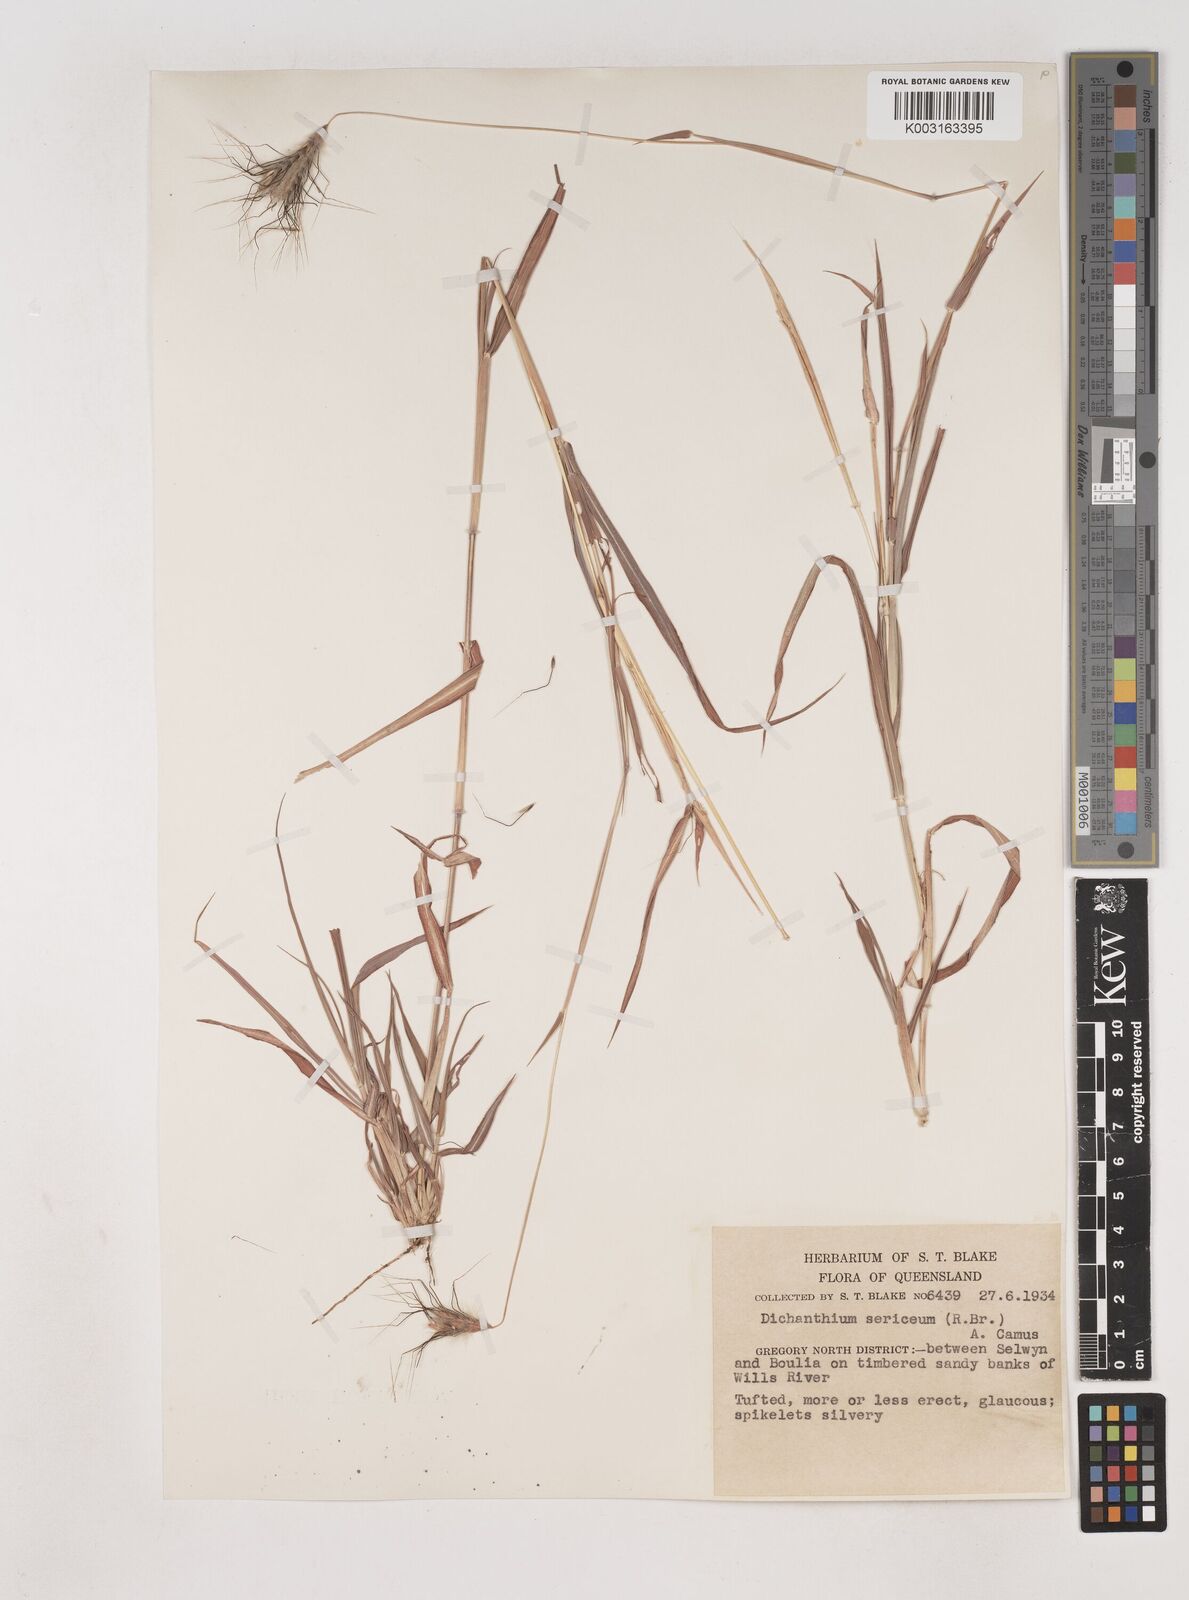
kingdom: Plantae
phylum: Tracheophyta
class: Liliopsida
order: Poales
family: Poaceae
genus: Dichanthium
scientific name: Dichanthium sericeum
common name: Silky bluestem
